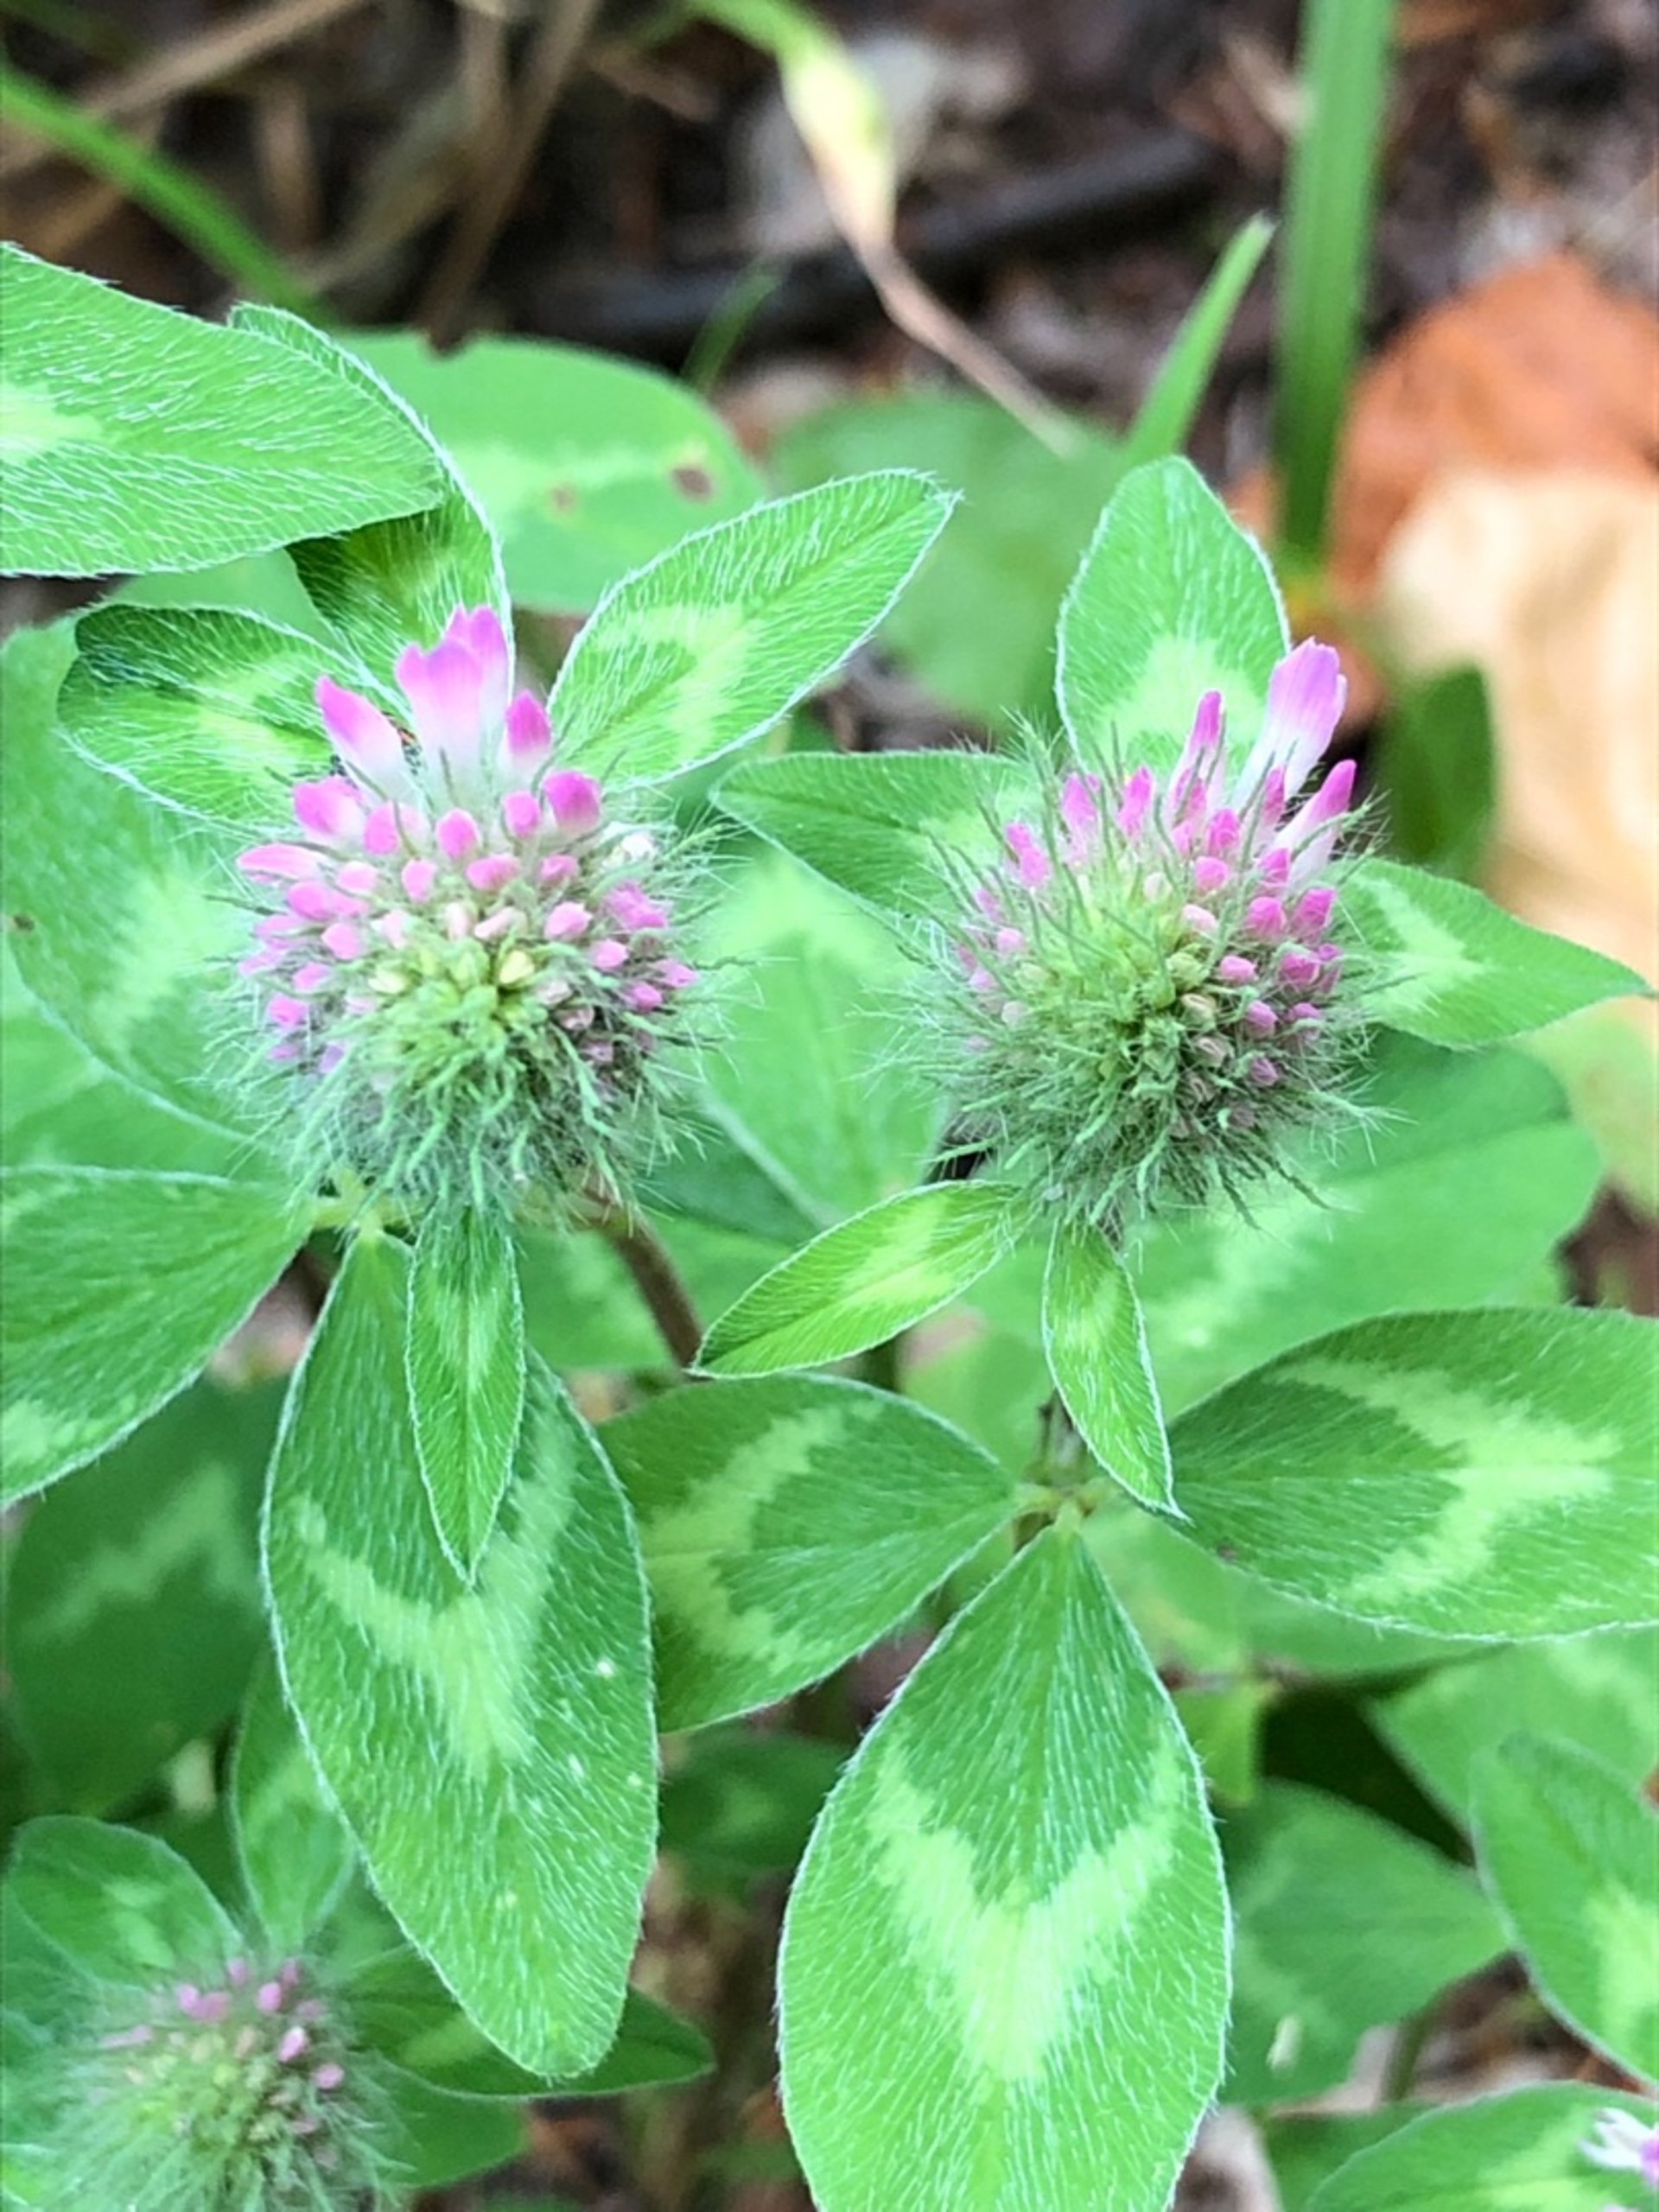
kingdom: Plantae
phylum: Tracheophyta
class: Magnoliopsida
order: Fabales
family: Fabaceae
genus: Trifolium
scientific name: Trifolium hirtum
